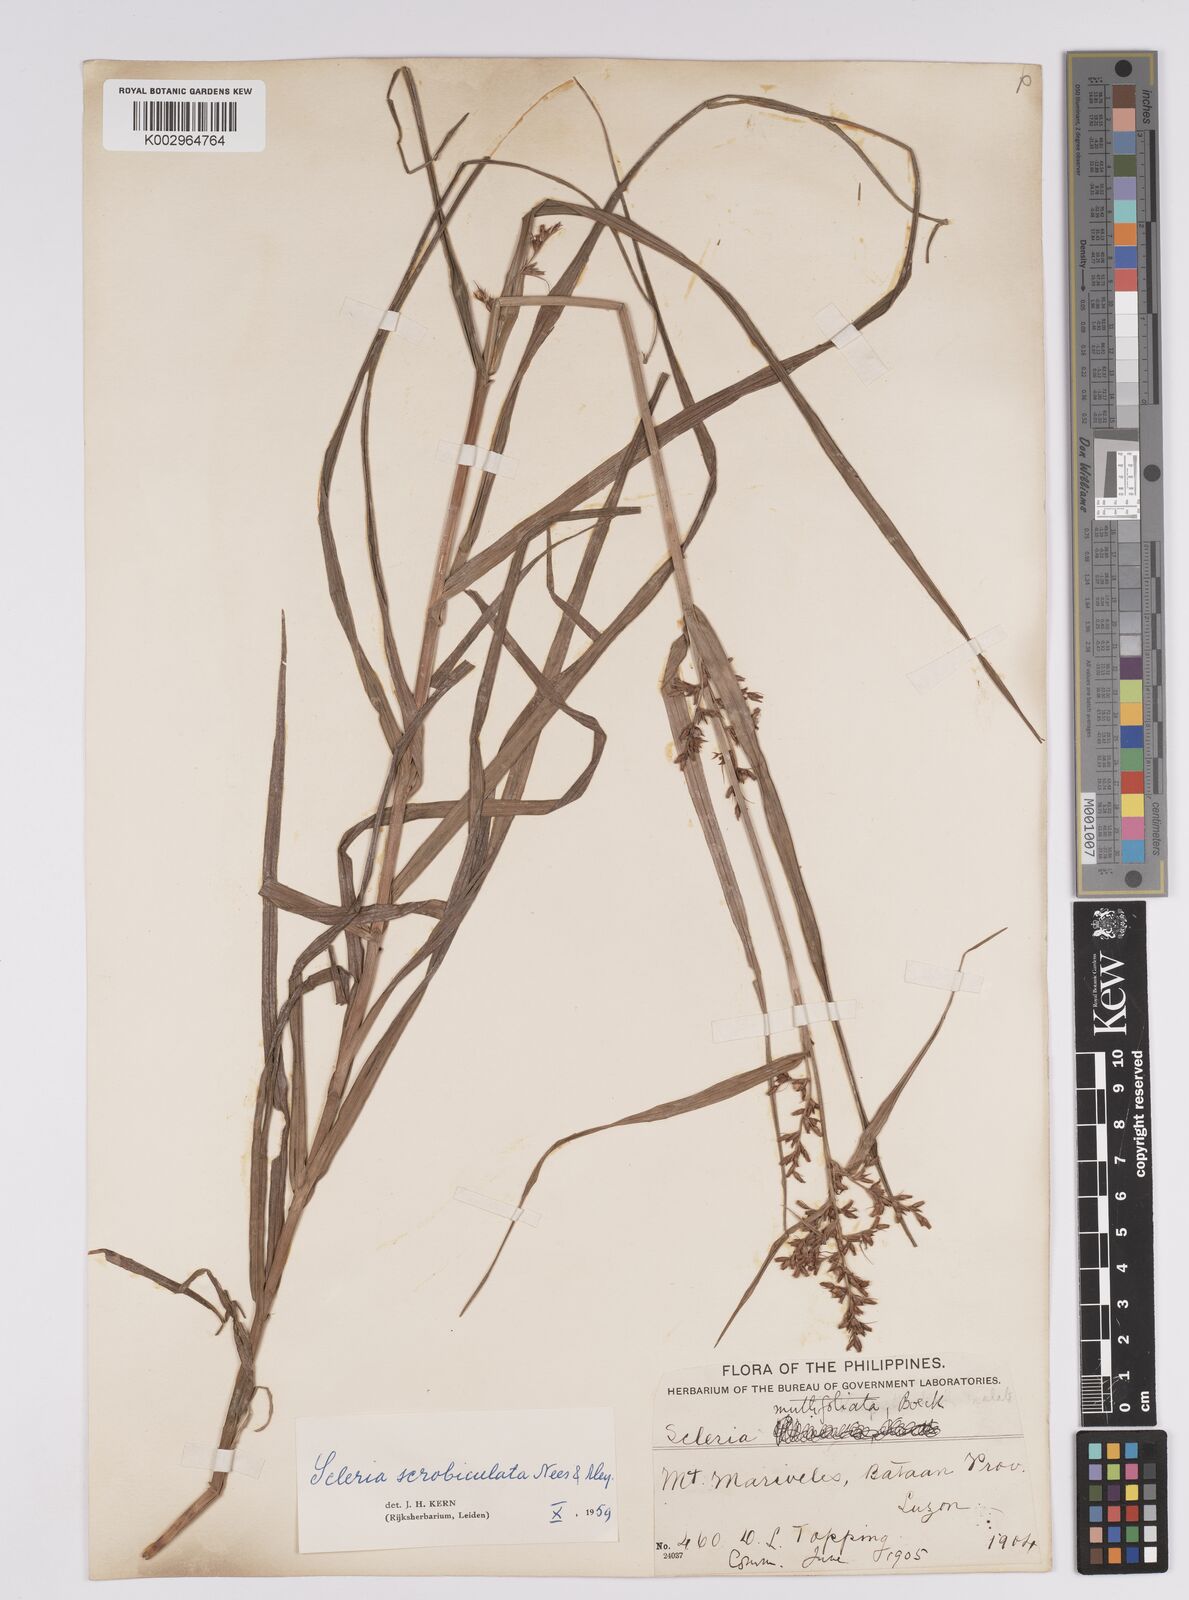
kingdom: Plantae
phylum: Tracheophyta
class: Liliopsida
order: Poales
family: Cyperaceae
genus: Scleria
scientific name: Scleria scrobiculata
